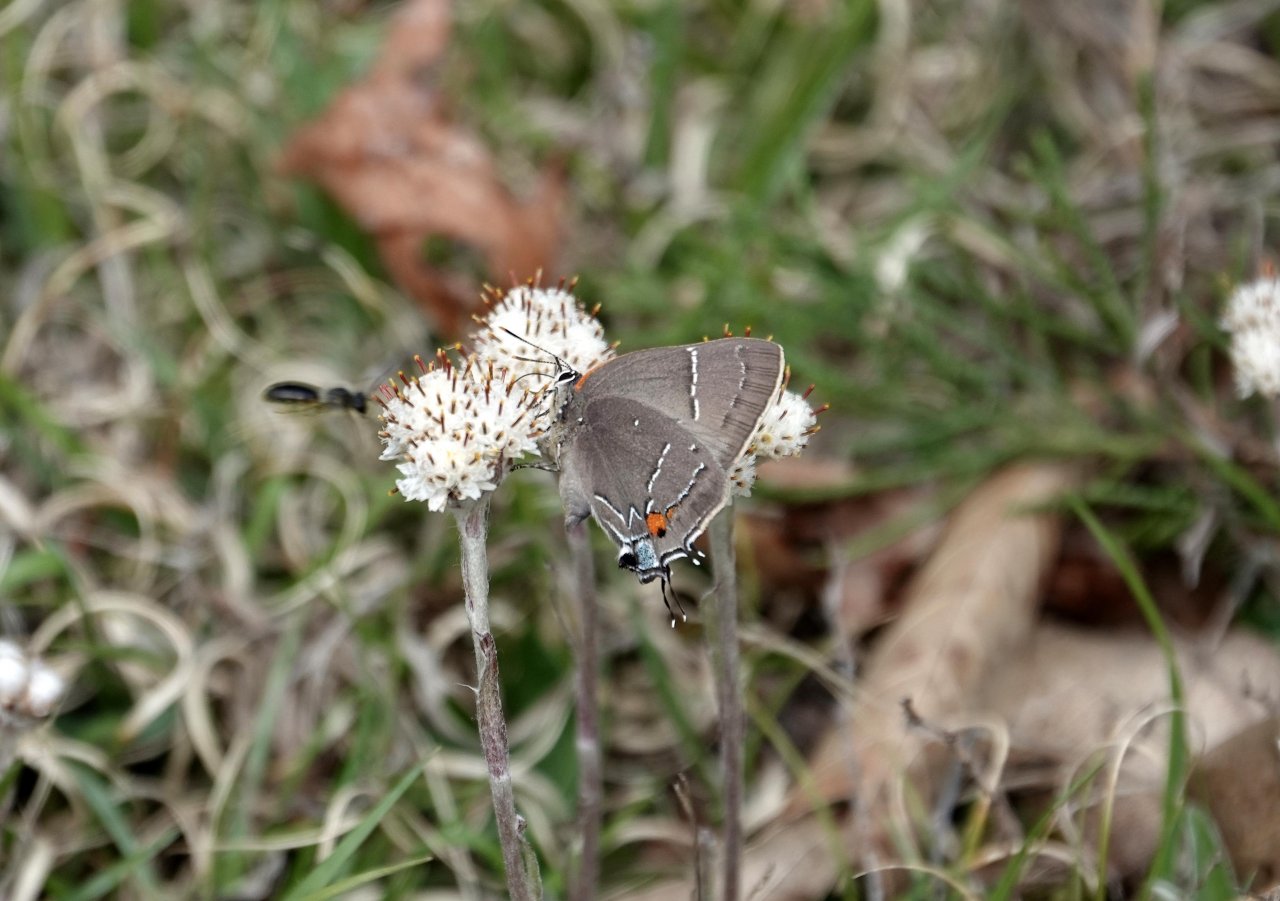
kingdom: Animalia
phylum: Arthropoda
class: Insecta
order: Lepidoptera
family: Lycaenidae
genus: Parrhasius
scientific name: Parrhasius m-album
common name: White-m Hairstreak
